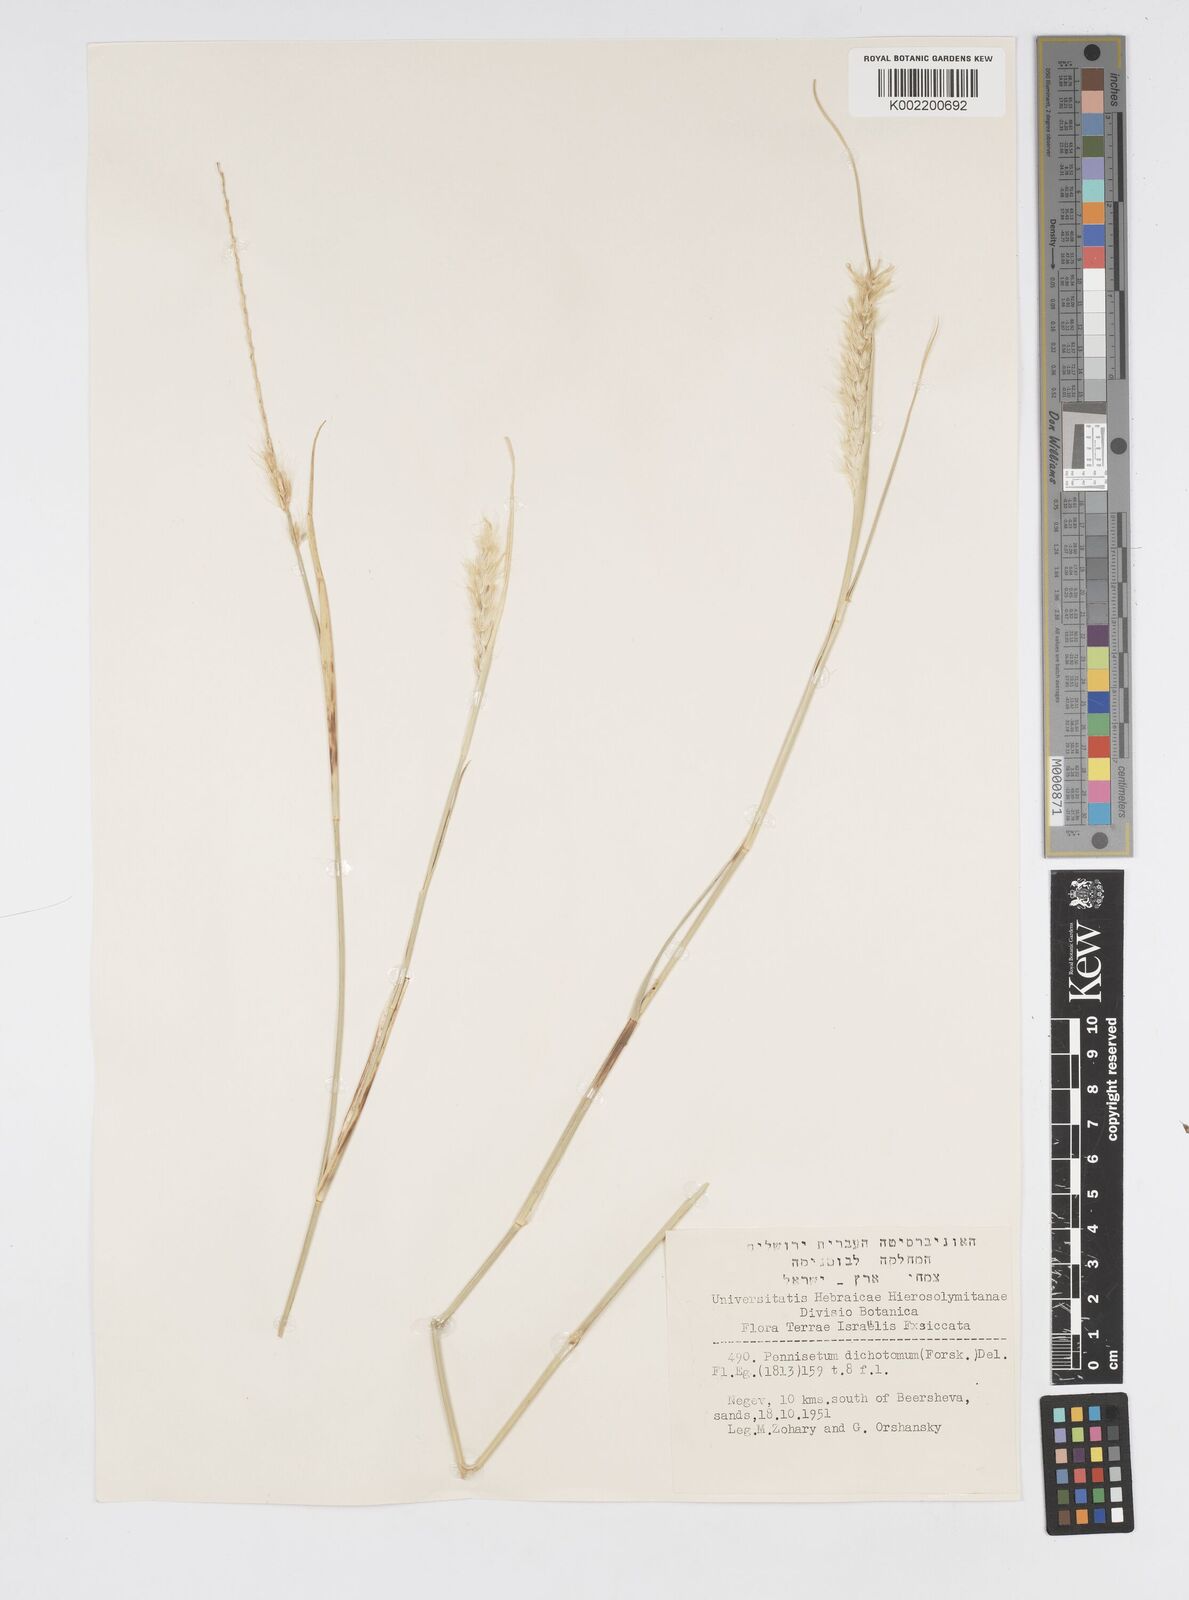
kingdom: Plantae
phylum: Tracheophyta
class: Liliopsida
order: Poales
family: Poaceae
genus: Cenchrus
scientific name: Cenchrus divisus
